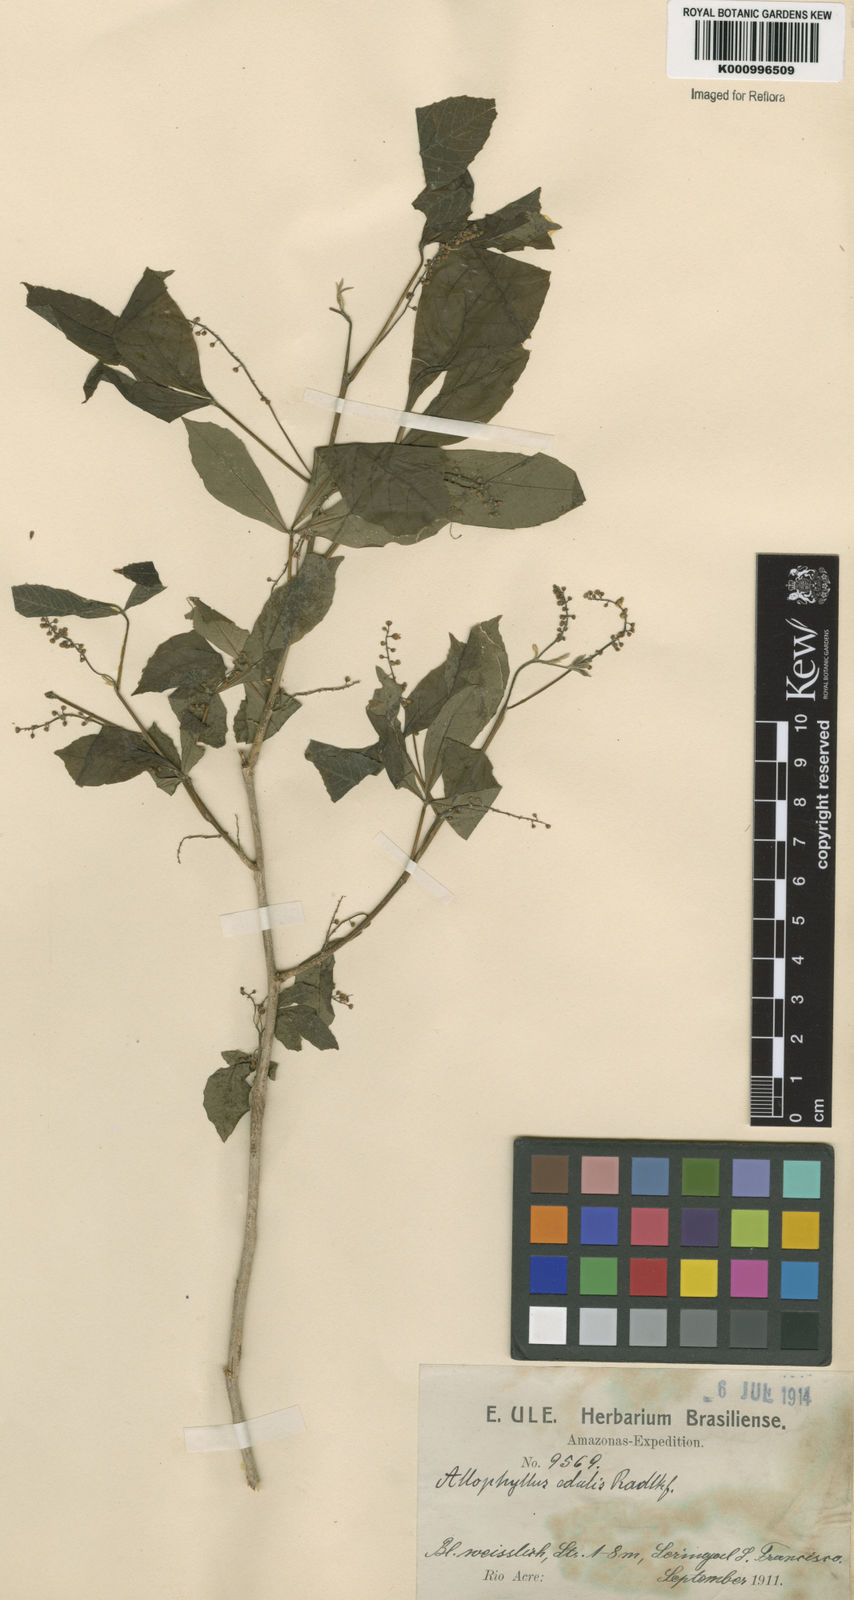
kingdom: Plantae
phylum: Tracheophyta
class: Magnoliopsida
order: Sapindales
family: Sapindaceae
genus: Allophylus
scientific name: Allophylus edulis
